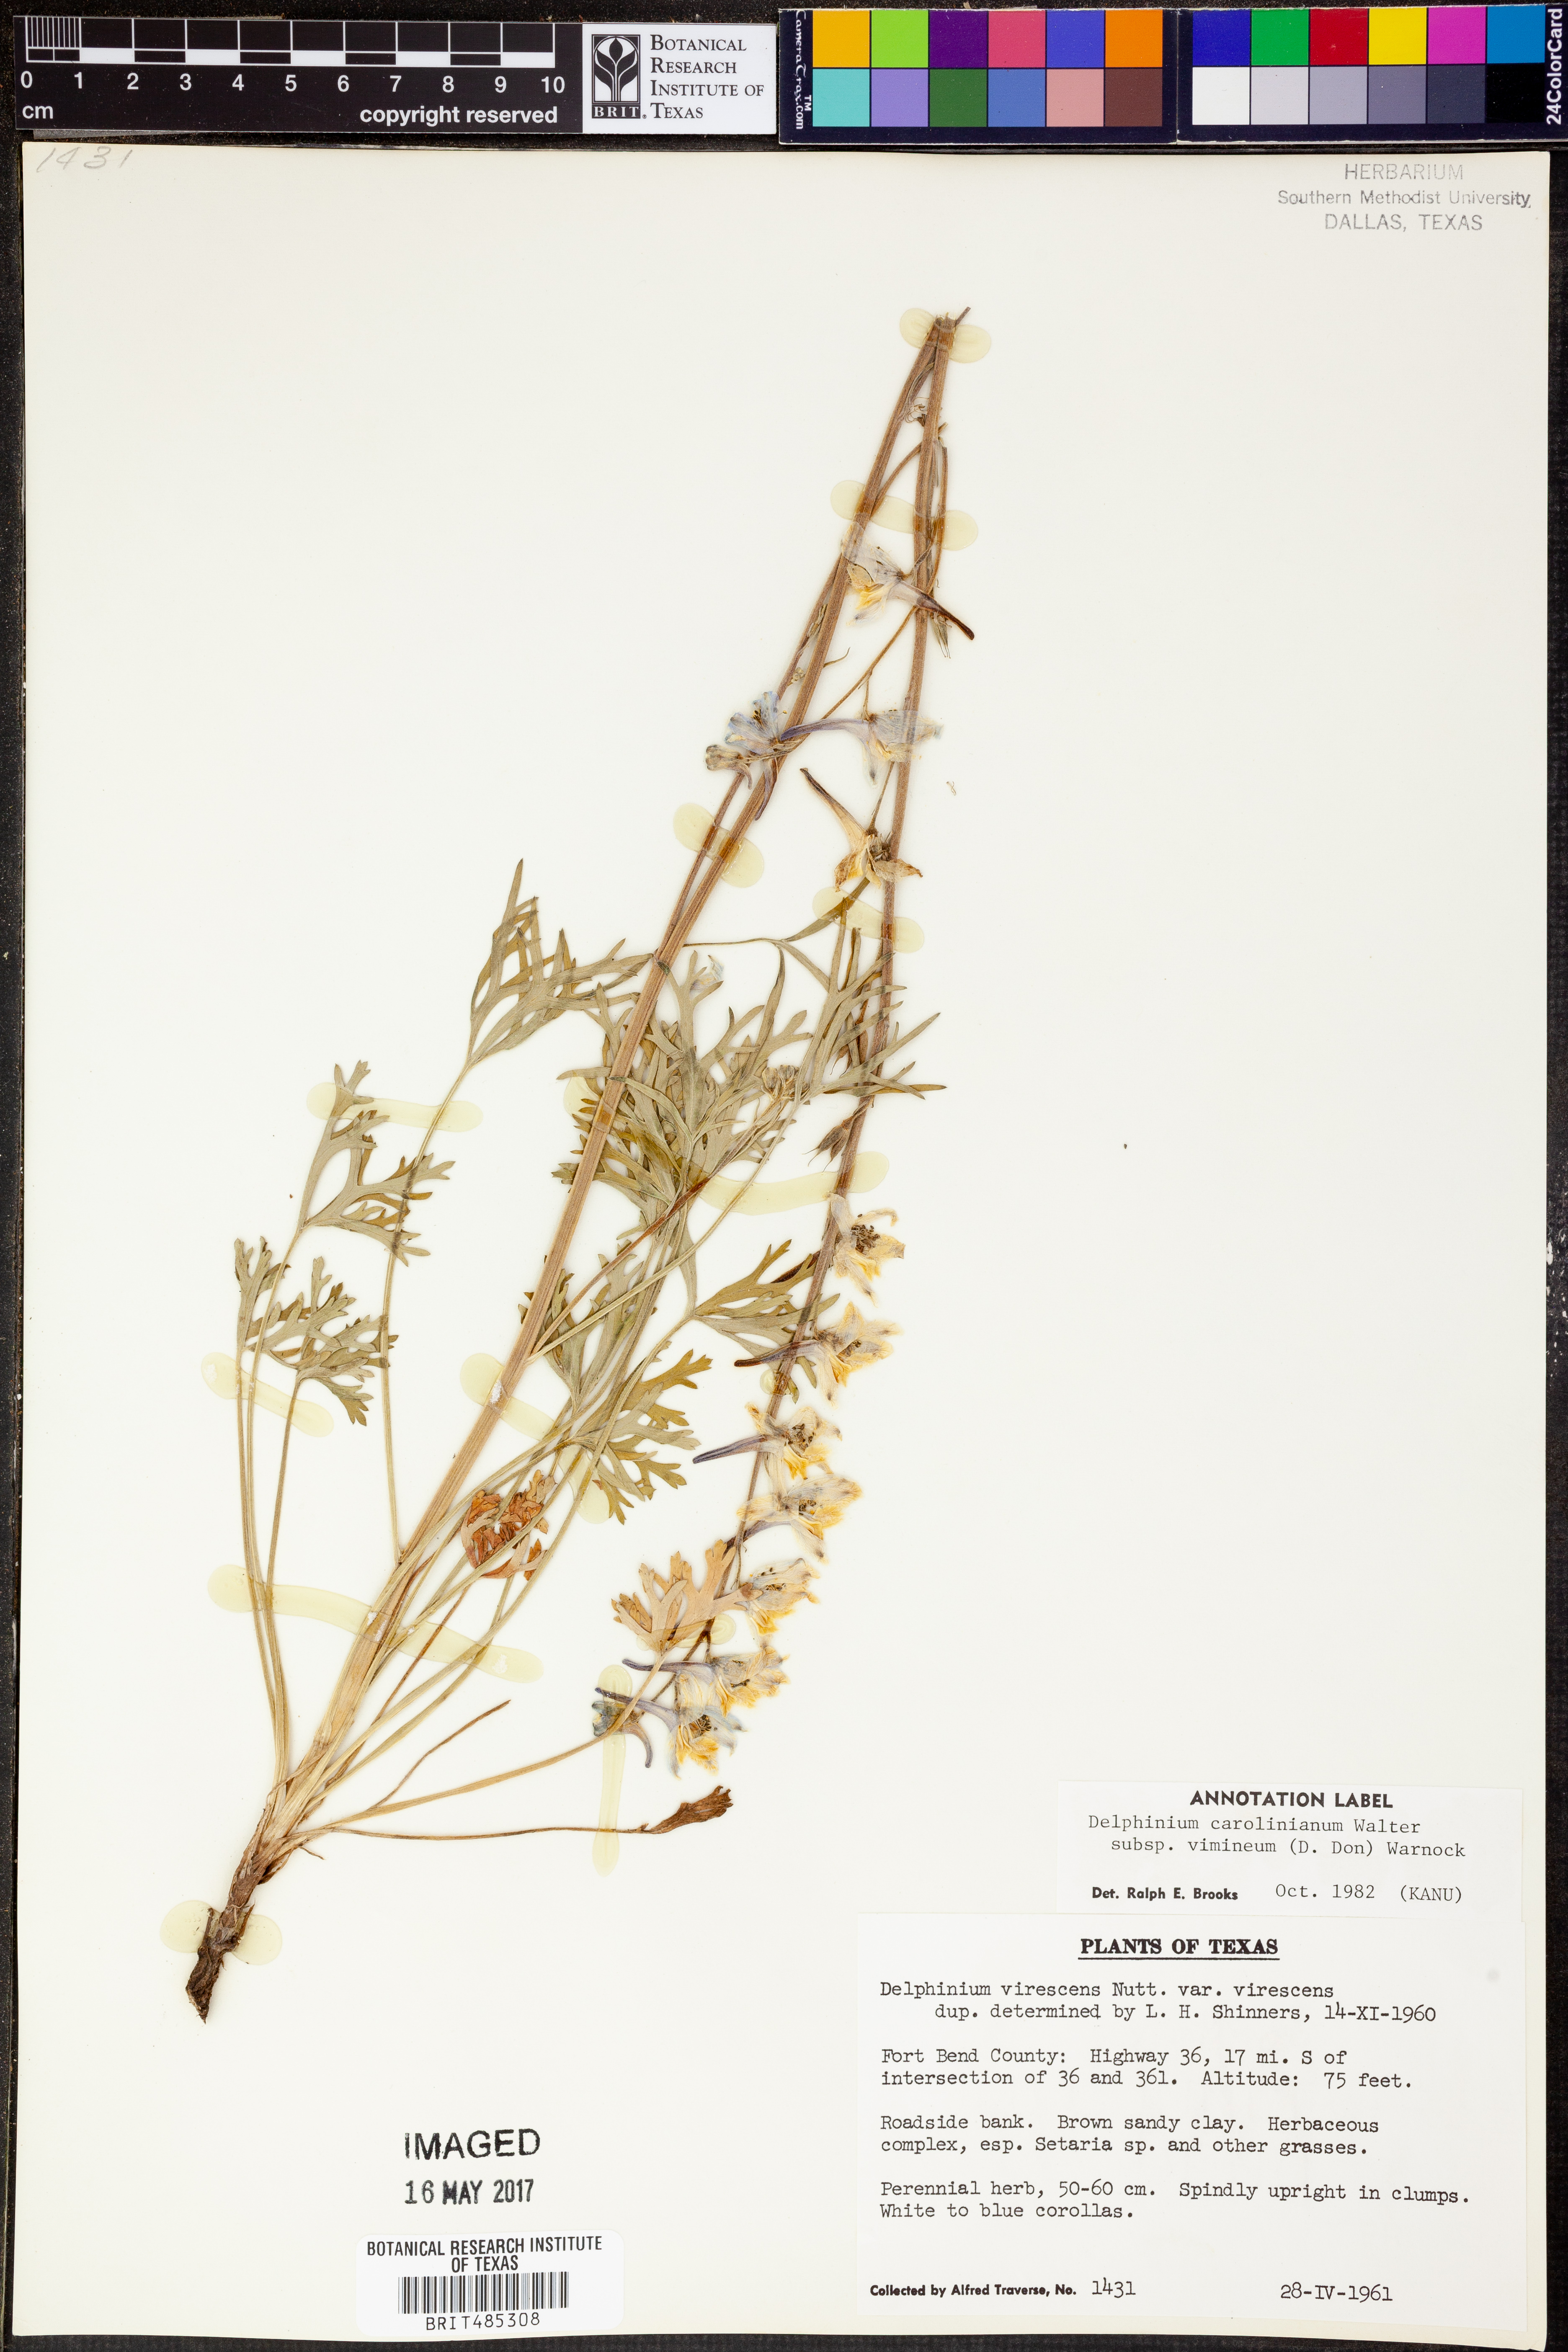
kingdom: Plantae
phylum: Tracheophyta
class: Magnoliopsida
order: Ranunculales
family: Ranunculaceae
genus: Delphinium
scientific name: Delphinium carolinianum
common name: Carolina larkspur
